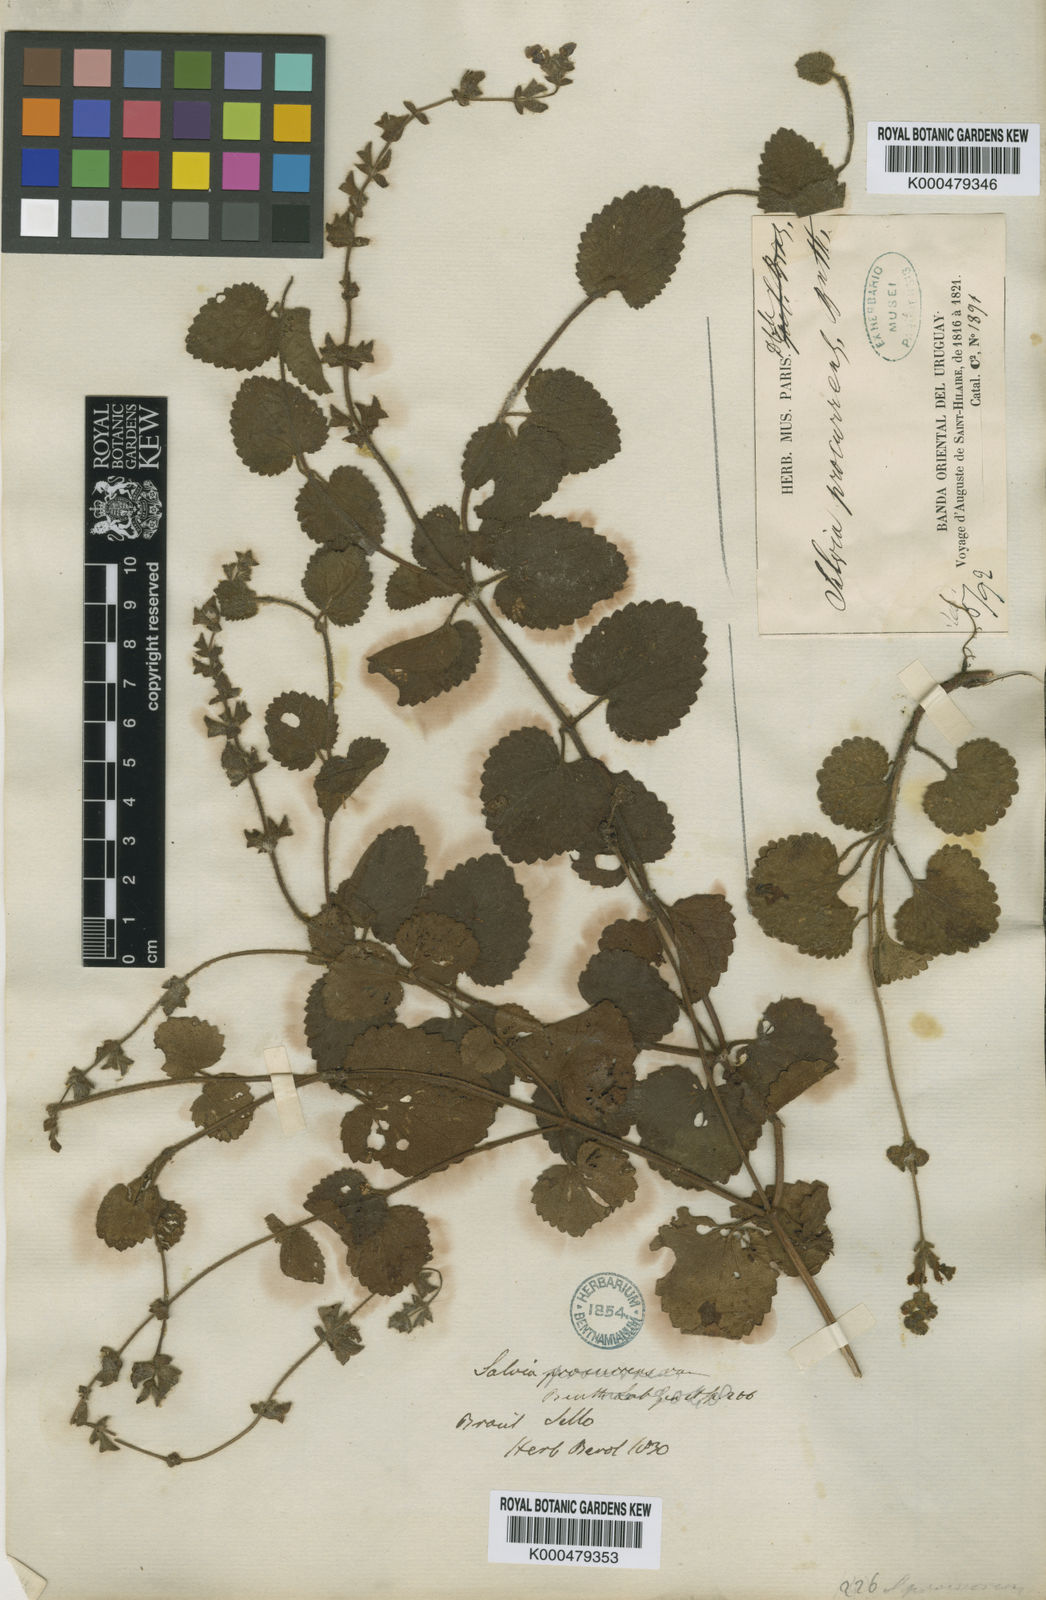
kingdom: Plantae
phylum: Tracheophyta
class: Magnoliopsida
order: Lamiales
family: Lamiaceae
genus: Salvia
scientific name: Salvia procurrens
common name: Blue creeper
